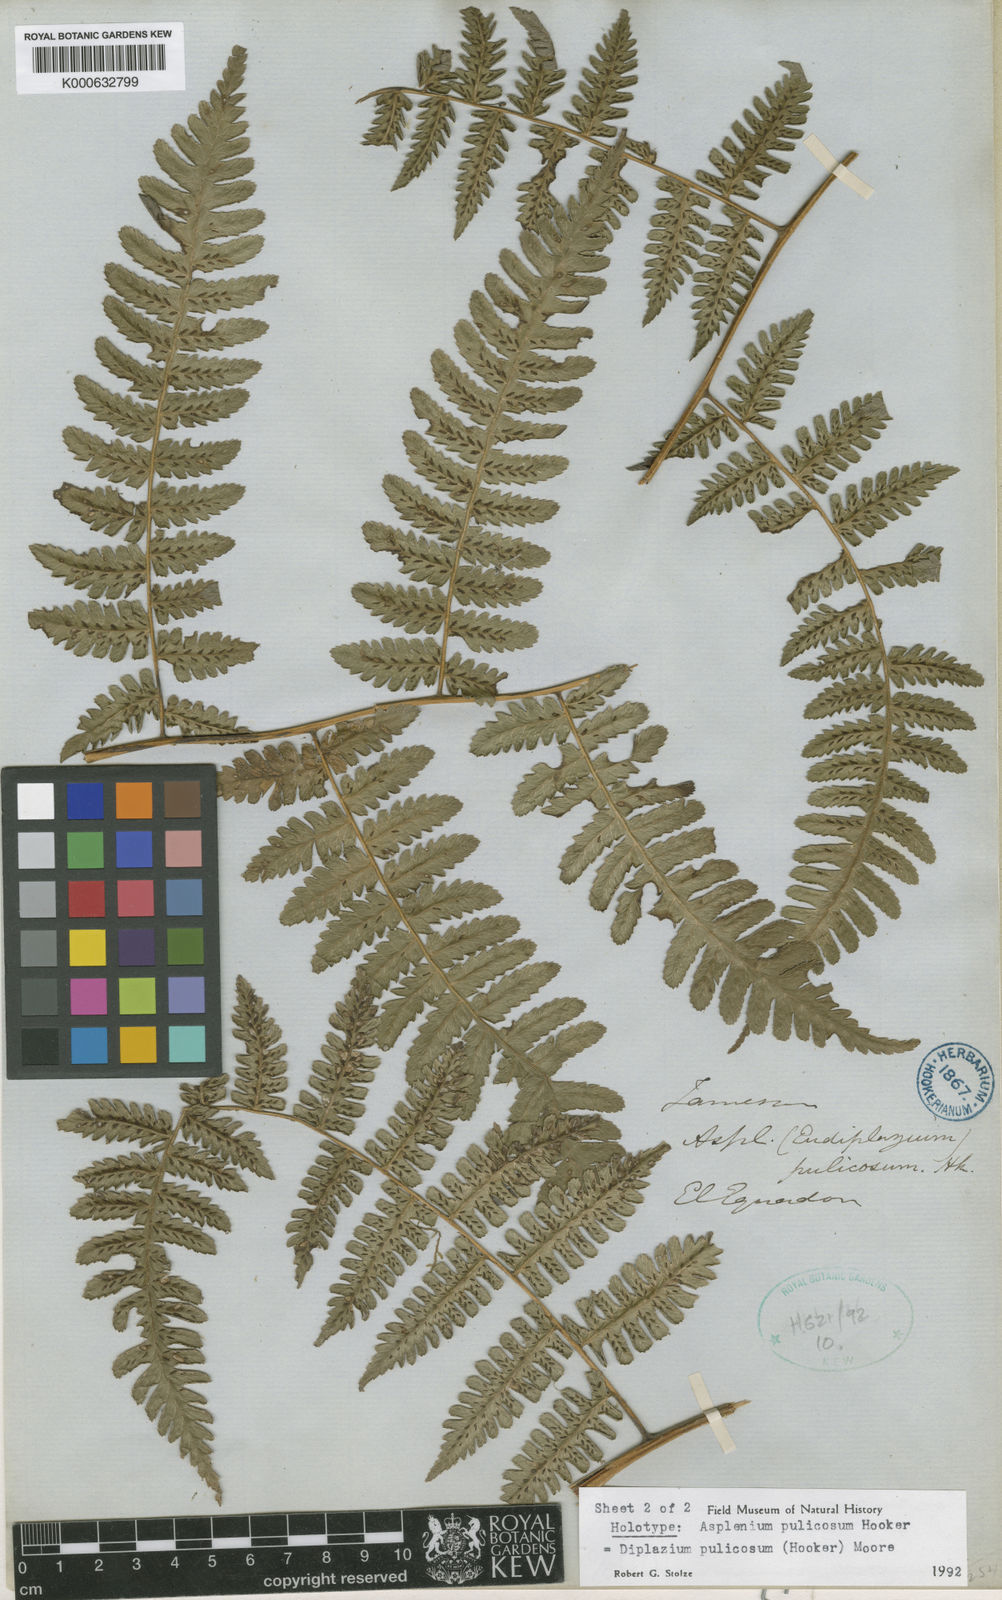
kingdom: Plantae
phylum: Tracheophyta
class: Polypodiopsida
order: Polypodiales
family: Athyriaceae
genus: Diplazium
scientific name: Diplazium pulicosum
